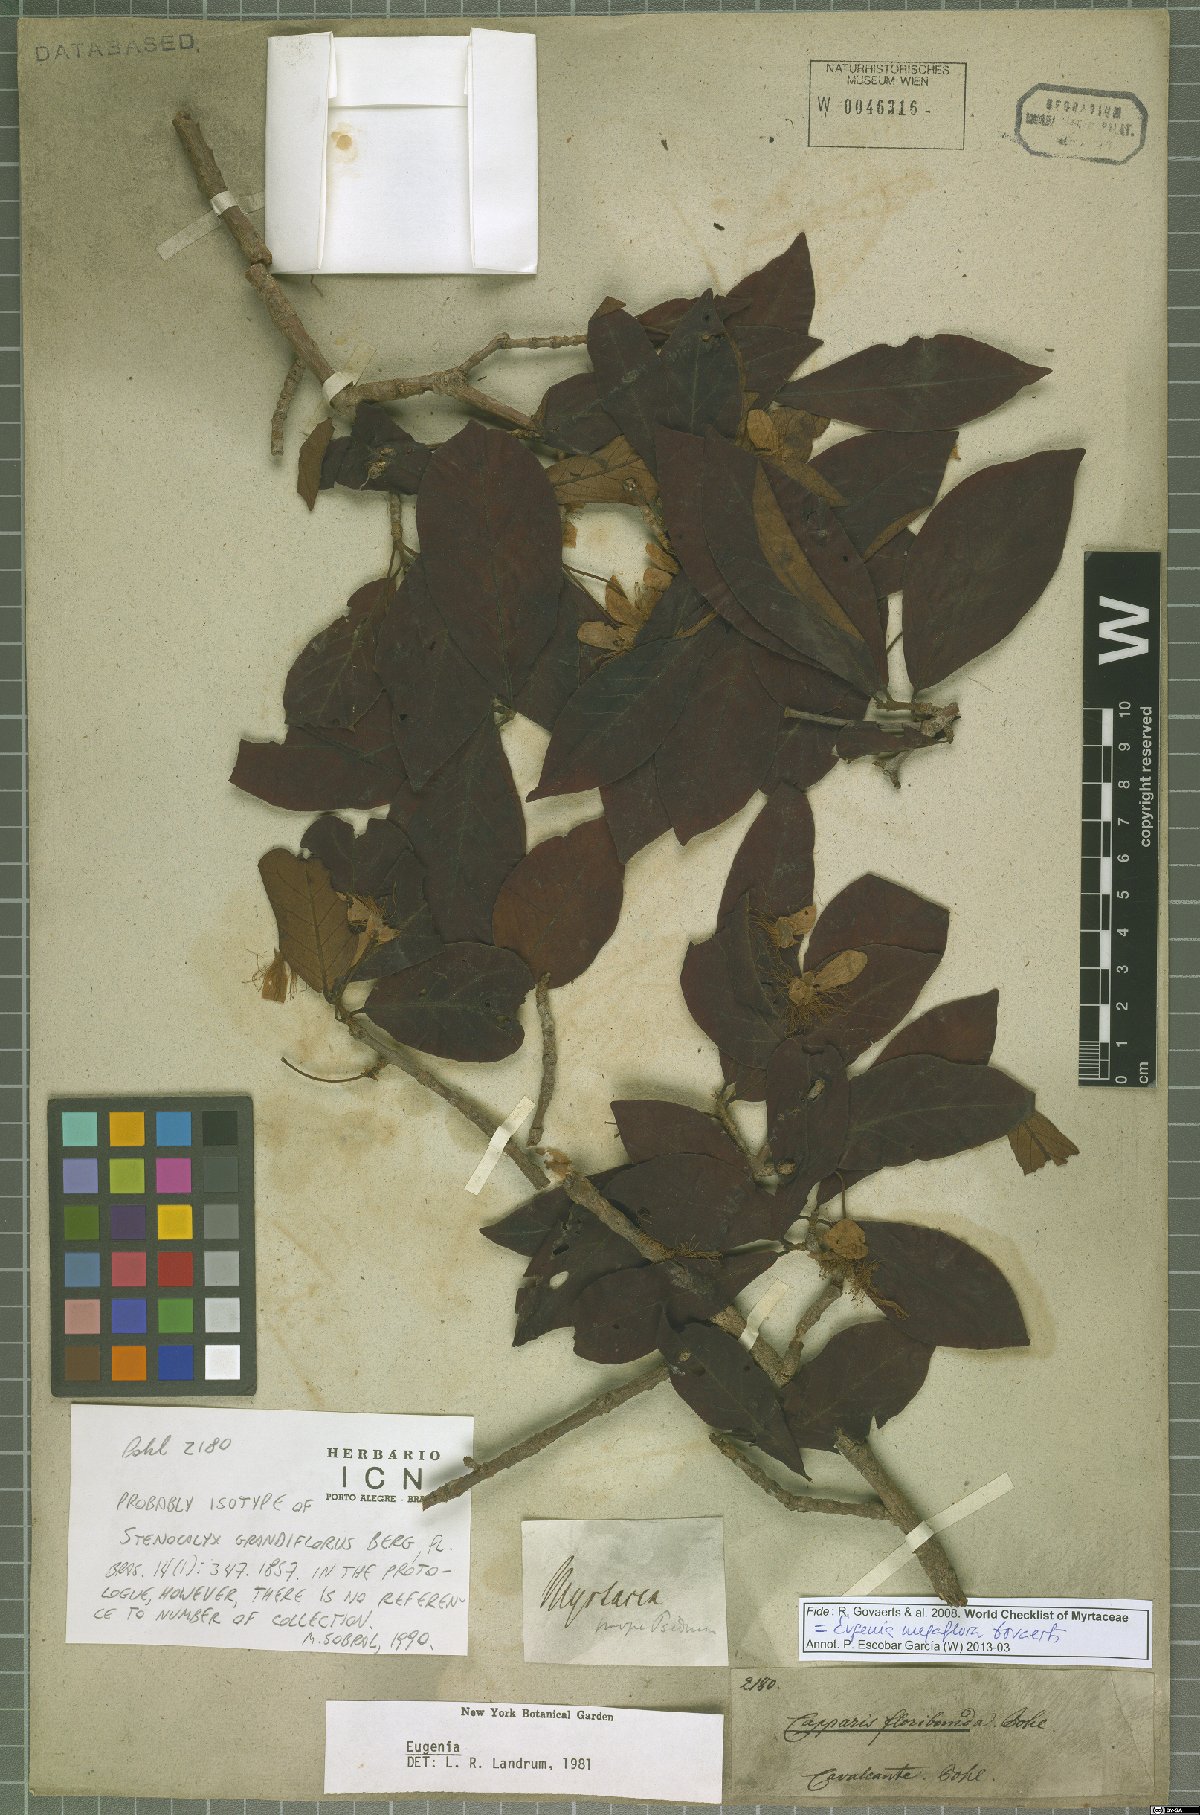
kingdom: Plantae
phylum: Tracheophyta
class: Magnoliopsida
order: Myrtales
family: Myrtaceae
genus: Eugenia
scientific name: Eugenia megaflora
